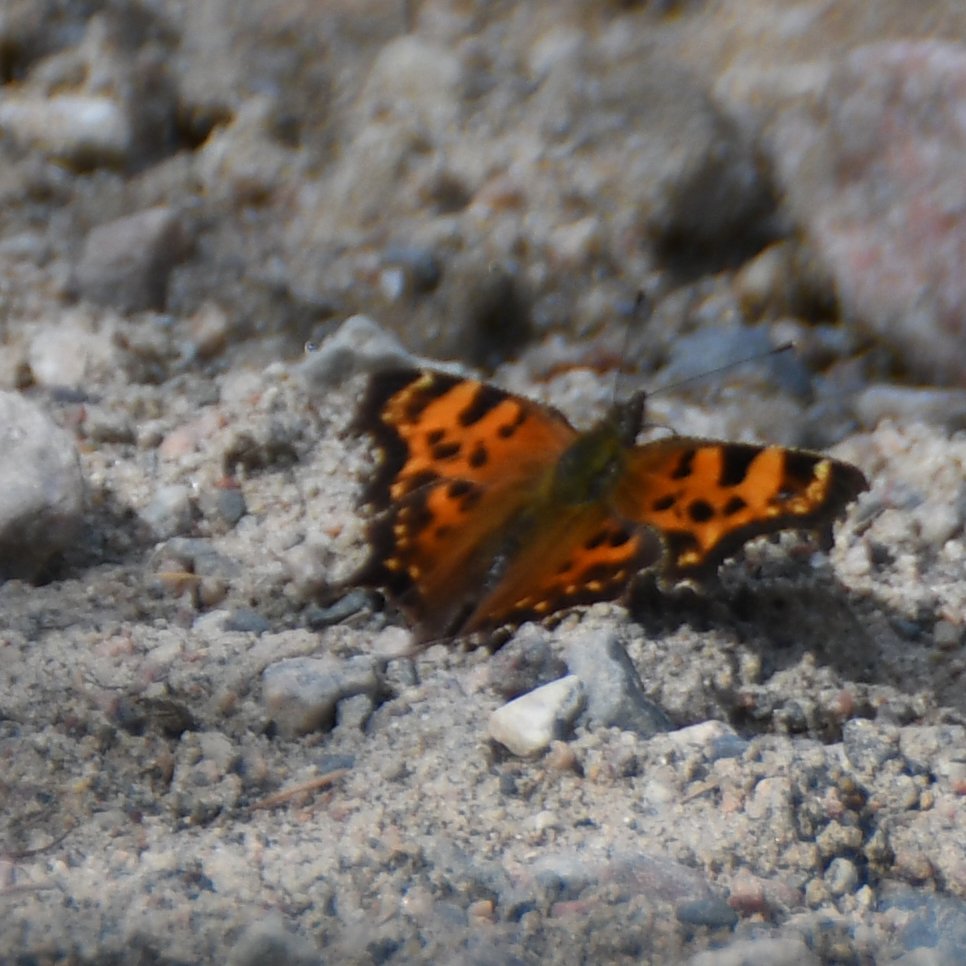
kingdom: Animalia
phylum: Arthropoda
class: Insecta
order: Lepidoptera
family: Nymphalidae
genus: Polygonia
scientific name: Polygonia faunus
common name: Green Comma
